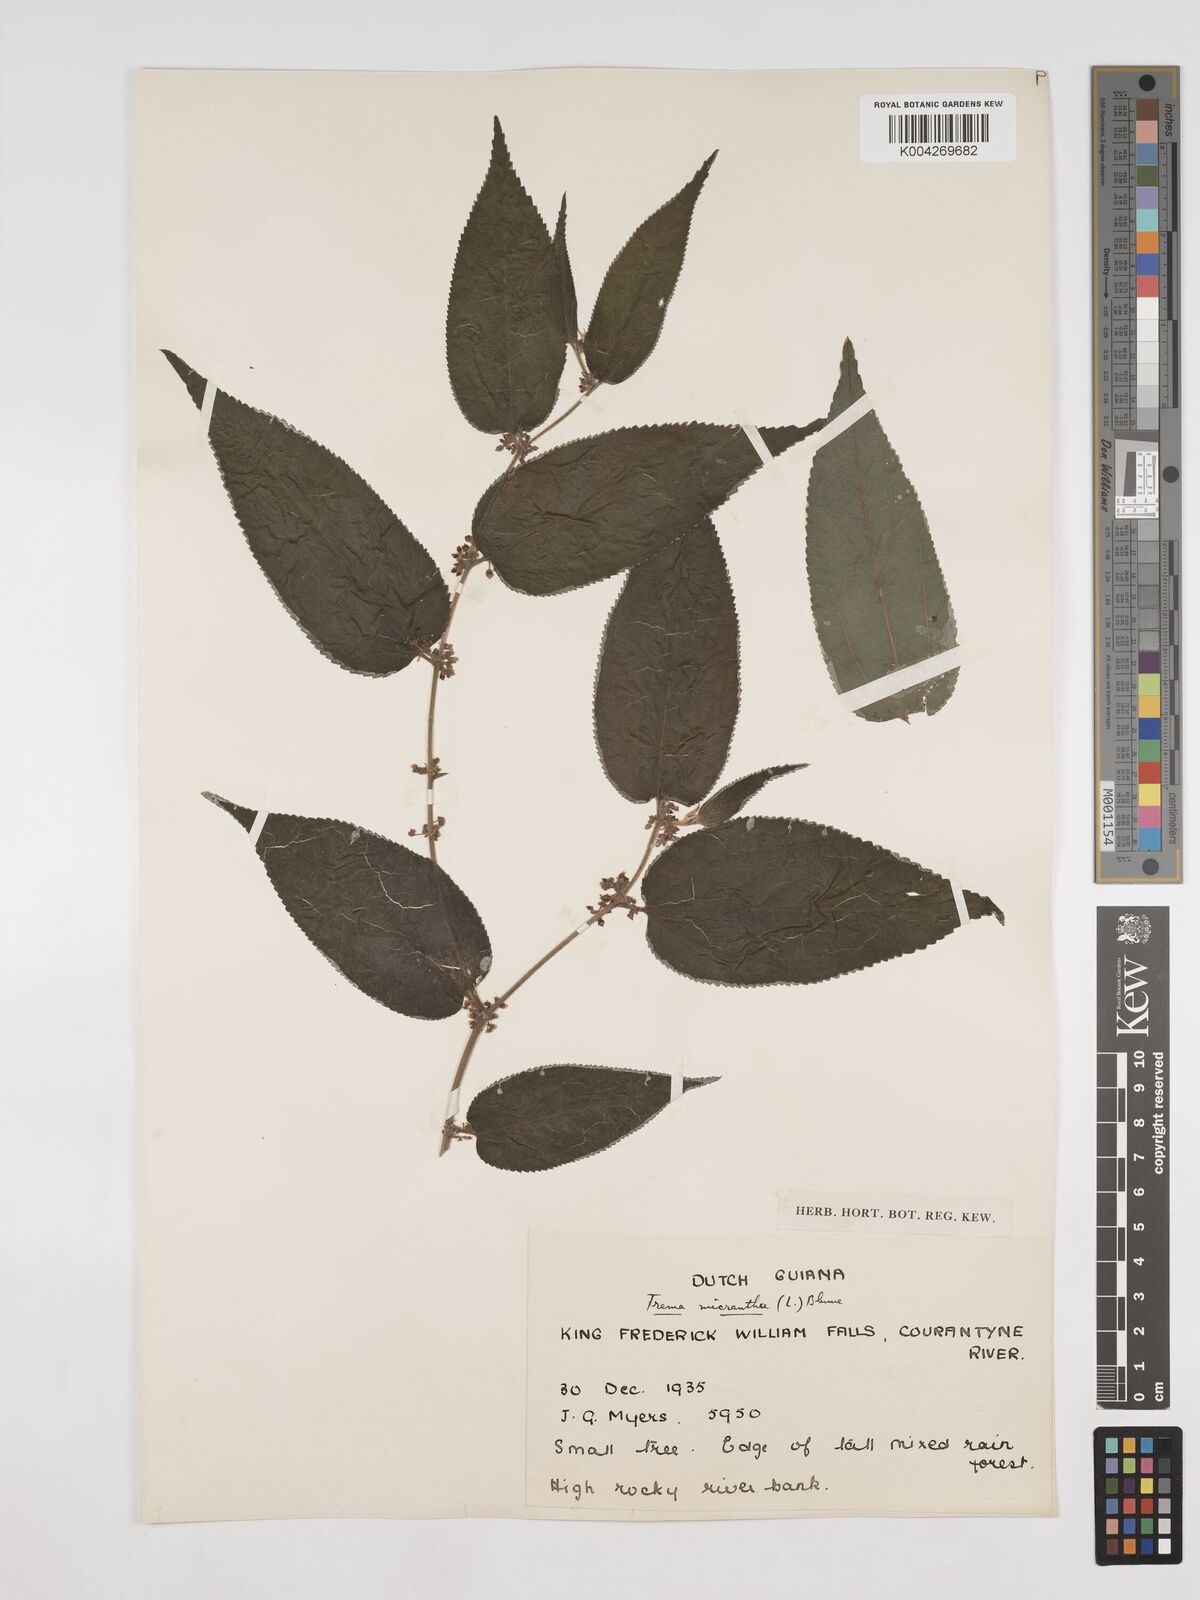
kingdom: Plantae
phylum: Tracheophyta
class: Magnoliopsida
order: Rosales
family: Cannabaceae
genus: Trema
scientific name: Trema micranthum
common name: Jamaican nettletree
